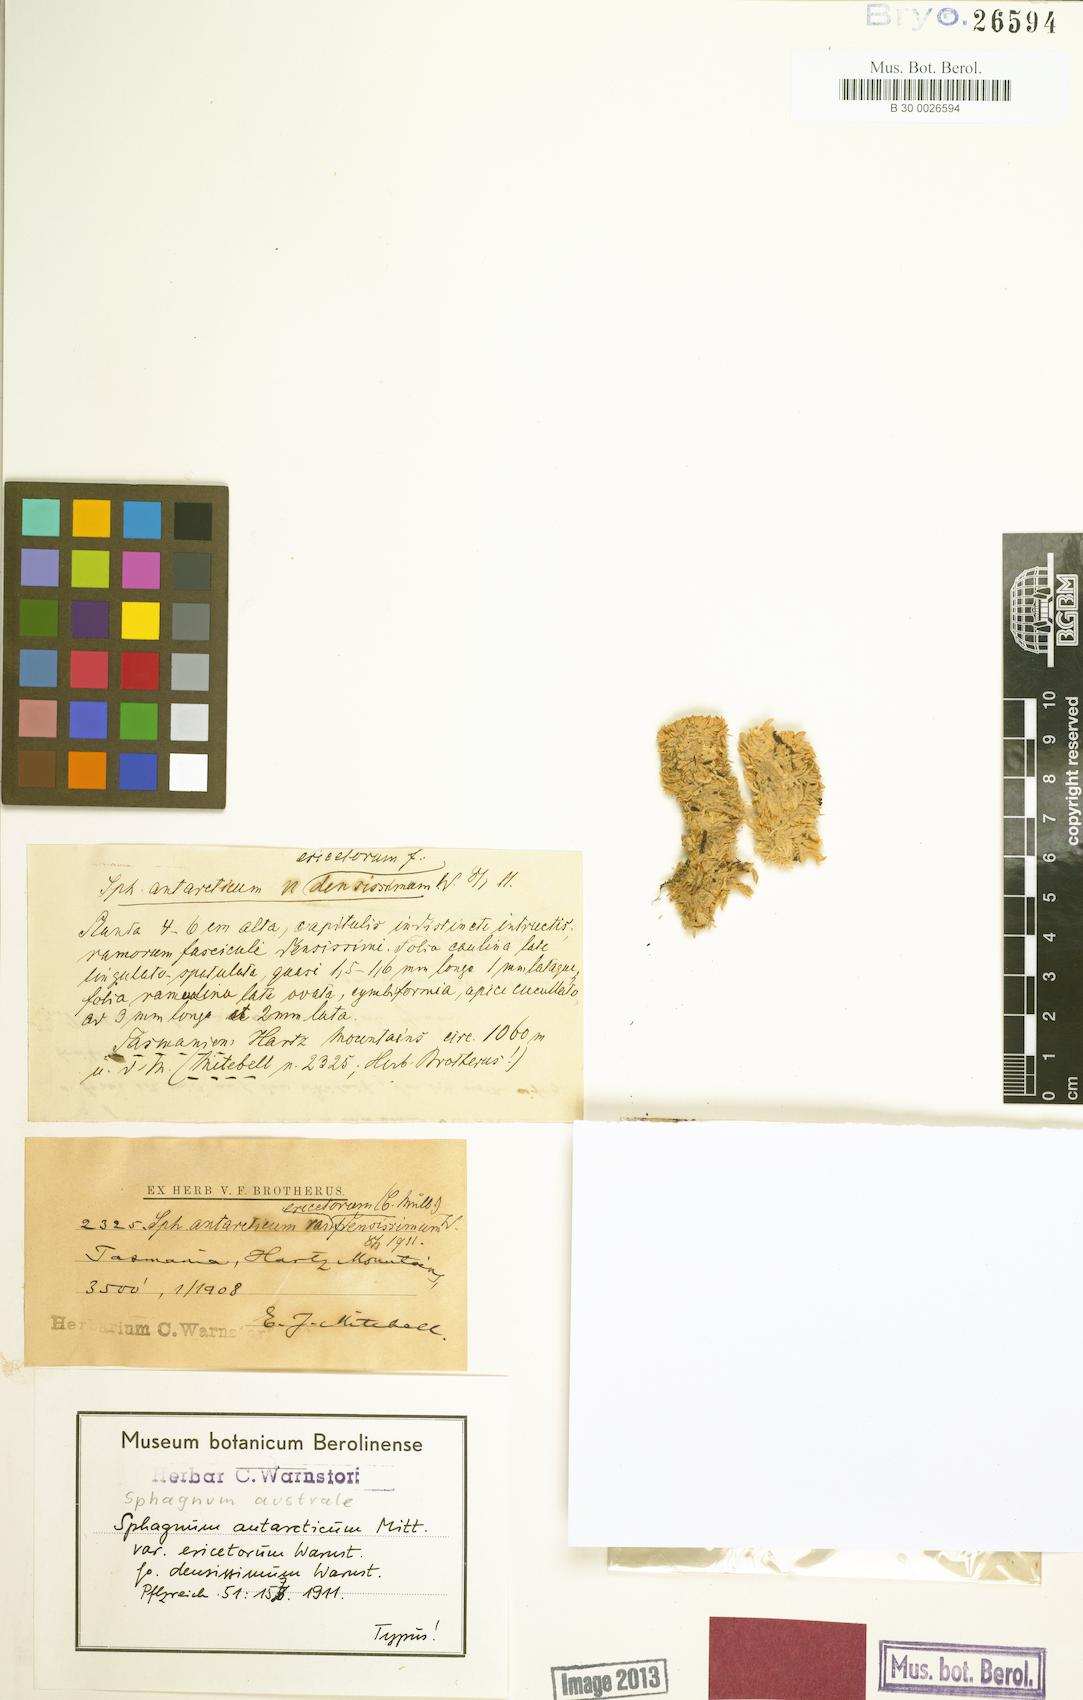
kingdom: Plantae
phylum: Bryophyta
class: Sphagnopsida
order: Sphagnales
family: Sphagnaceae
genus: Sphagnum
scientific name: Sphagnum australe
